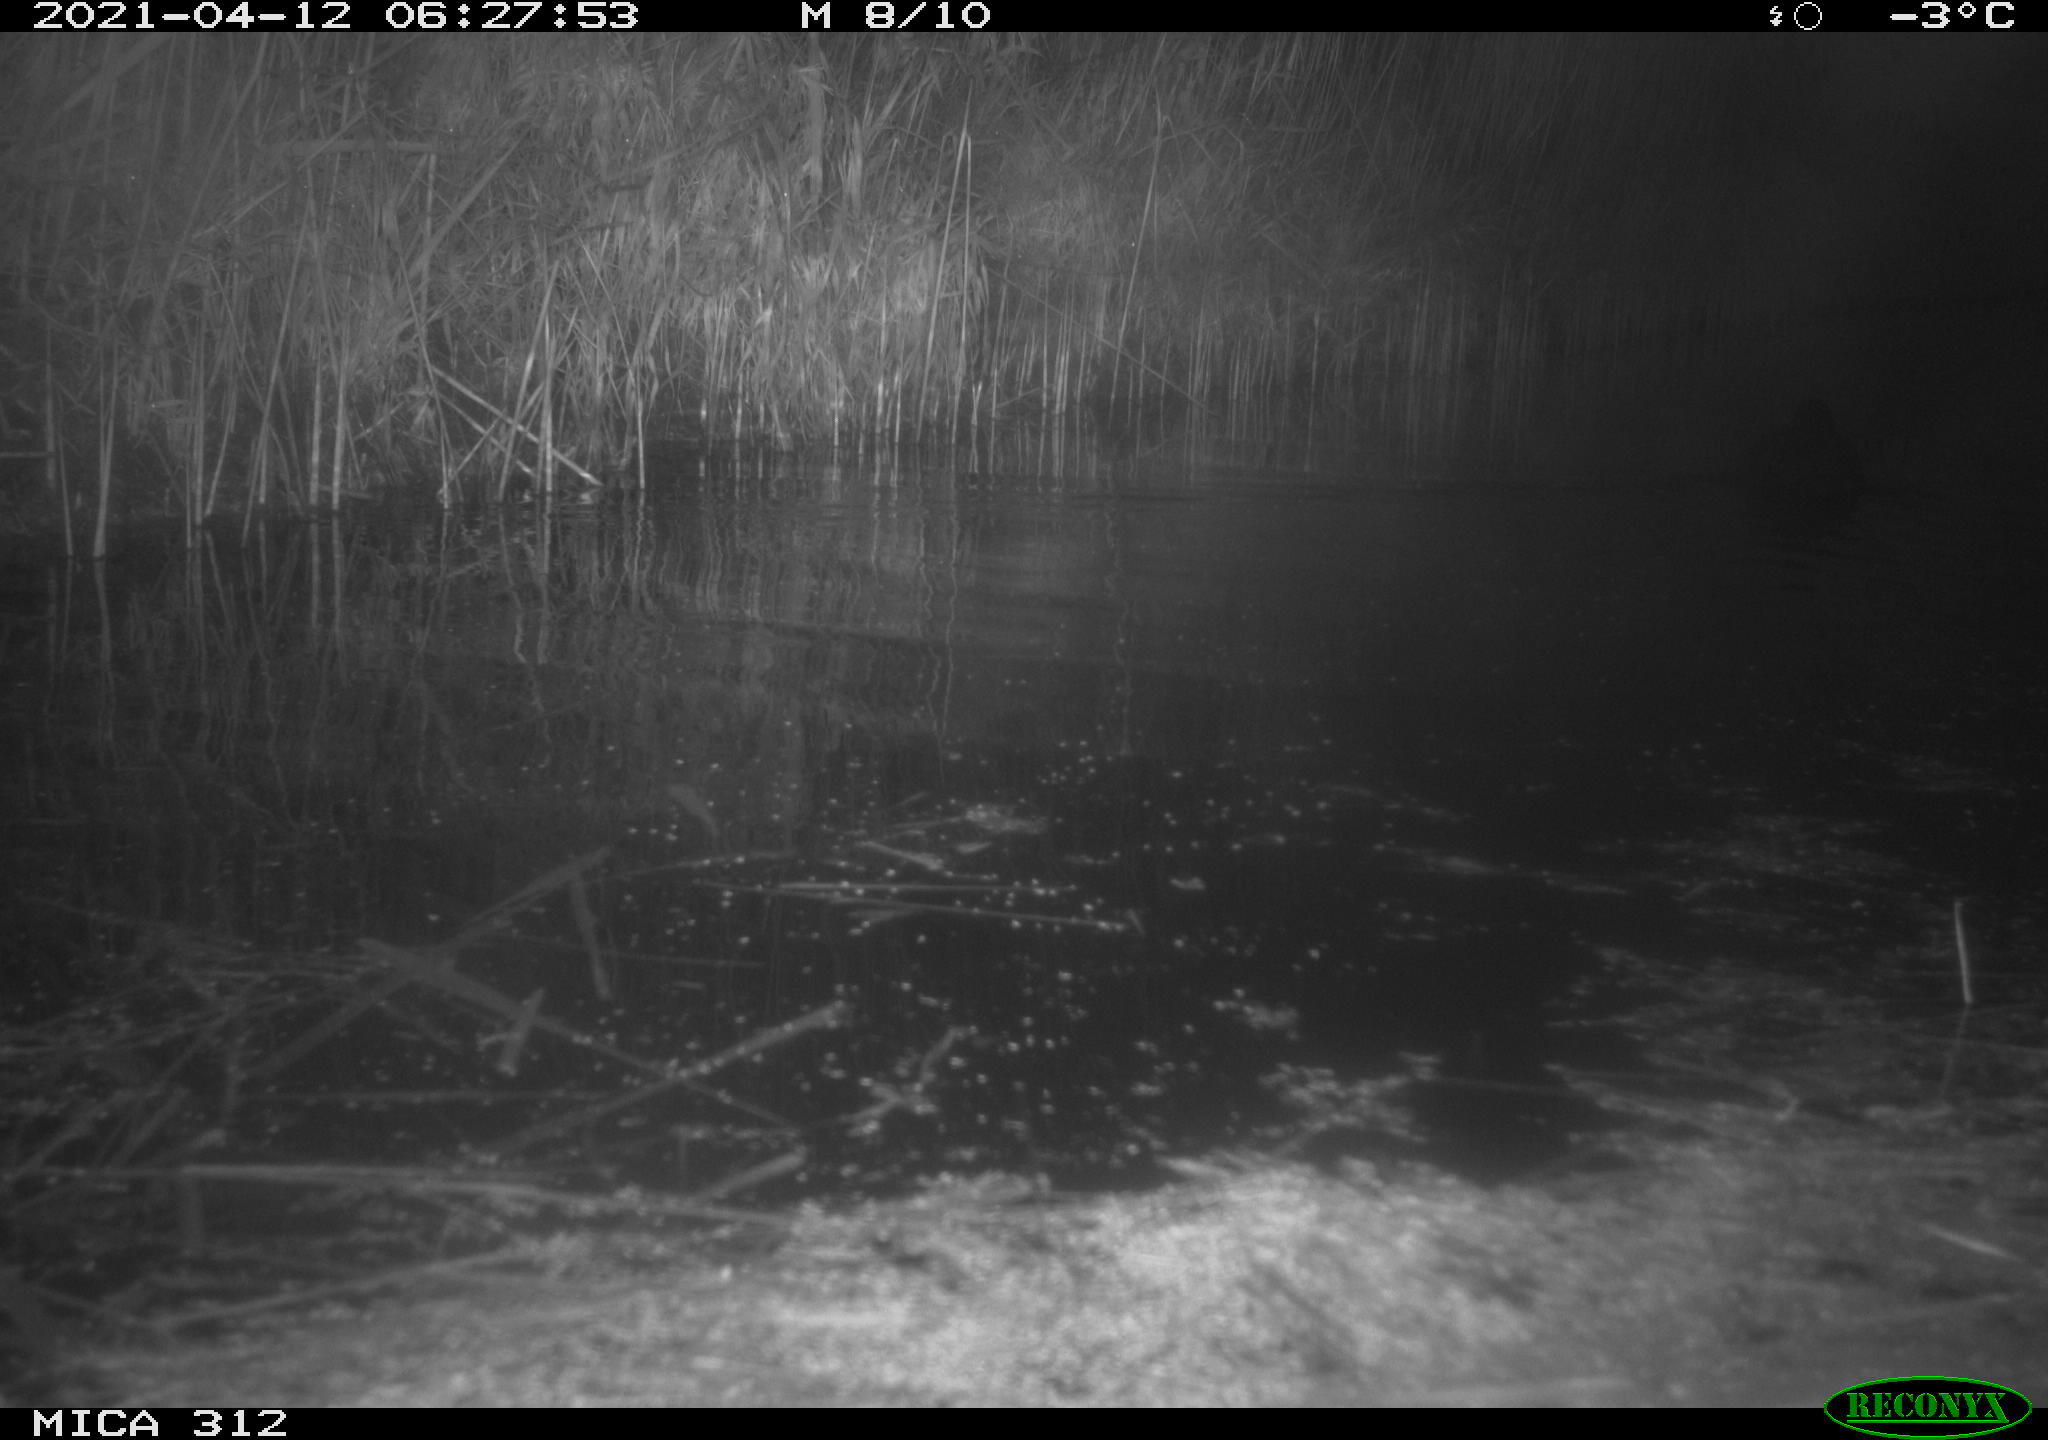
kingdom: Animalia
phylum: Chordata
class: Aves
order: Gruiformes
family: Rallidae
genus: Fulica
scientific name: Fulica atra
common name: Eurasian coot
